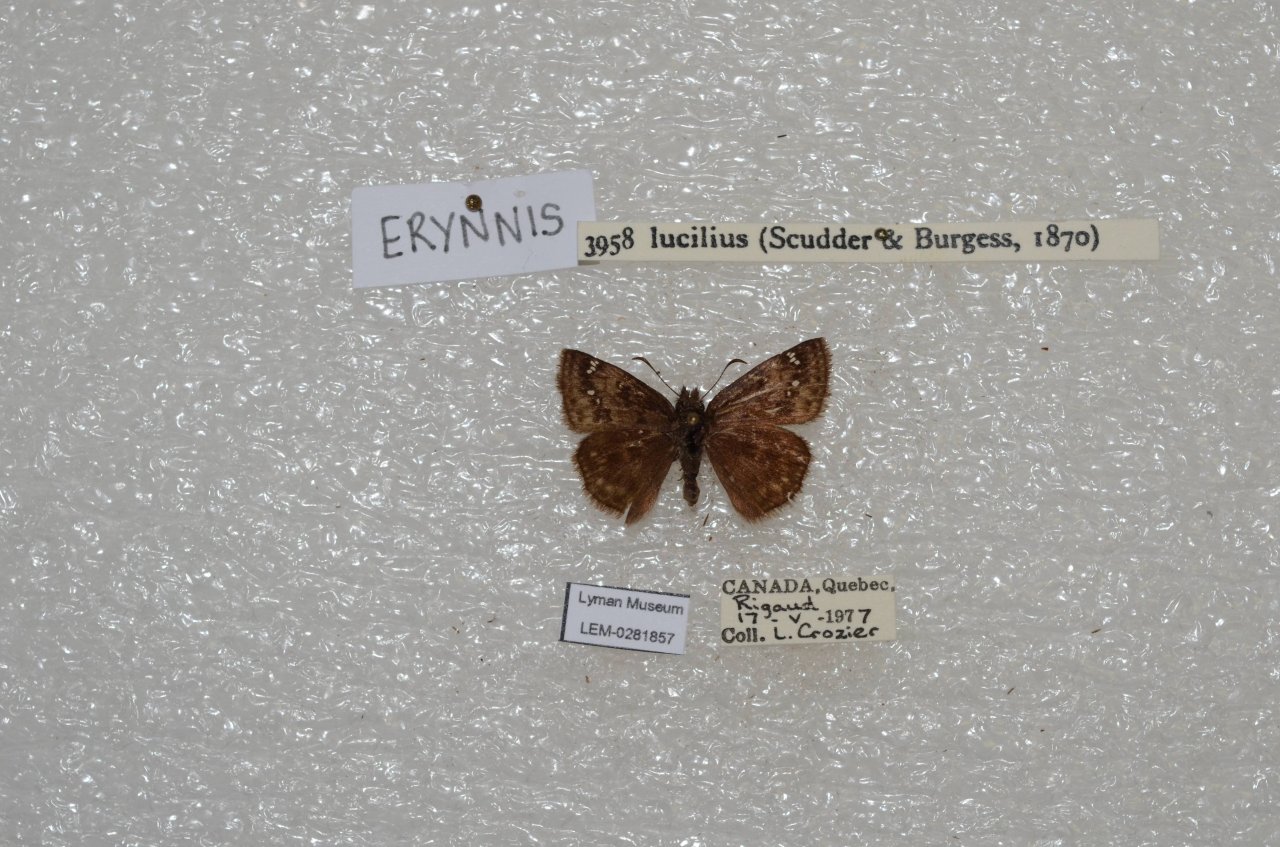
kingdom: Animalia
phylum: Arthropoda
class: Insecta
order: Lepidoptera
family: Hesperiidae
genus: Gesta
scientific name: Gesta
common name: Columbine Duskywing
